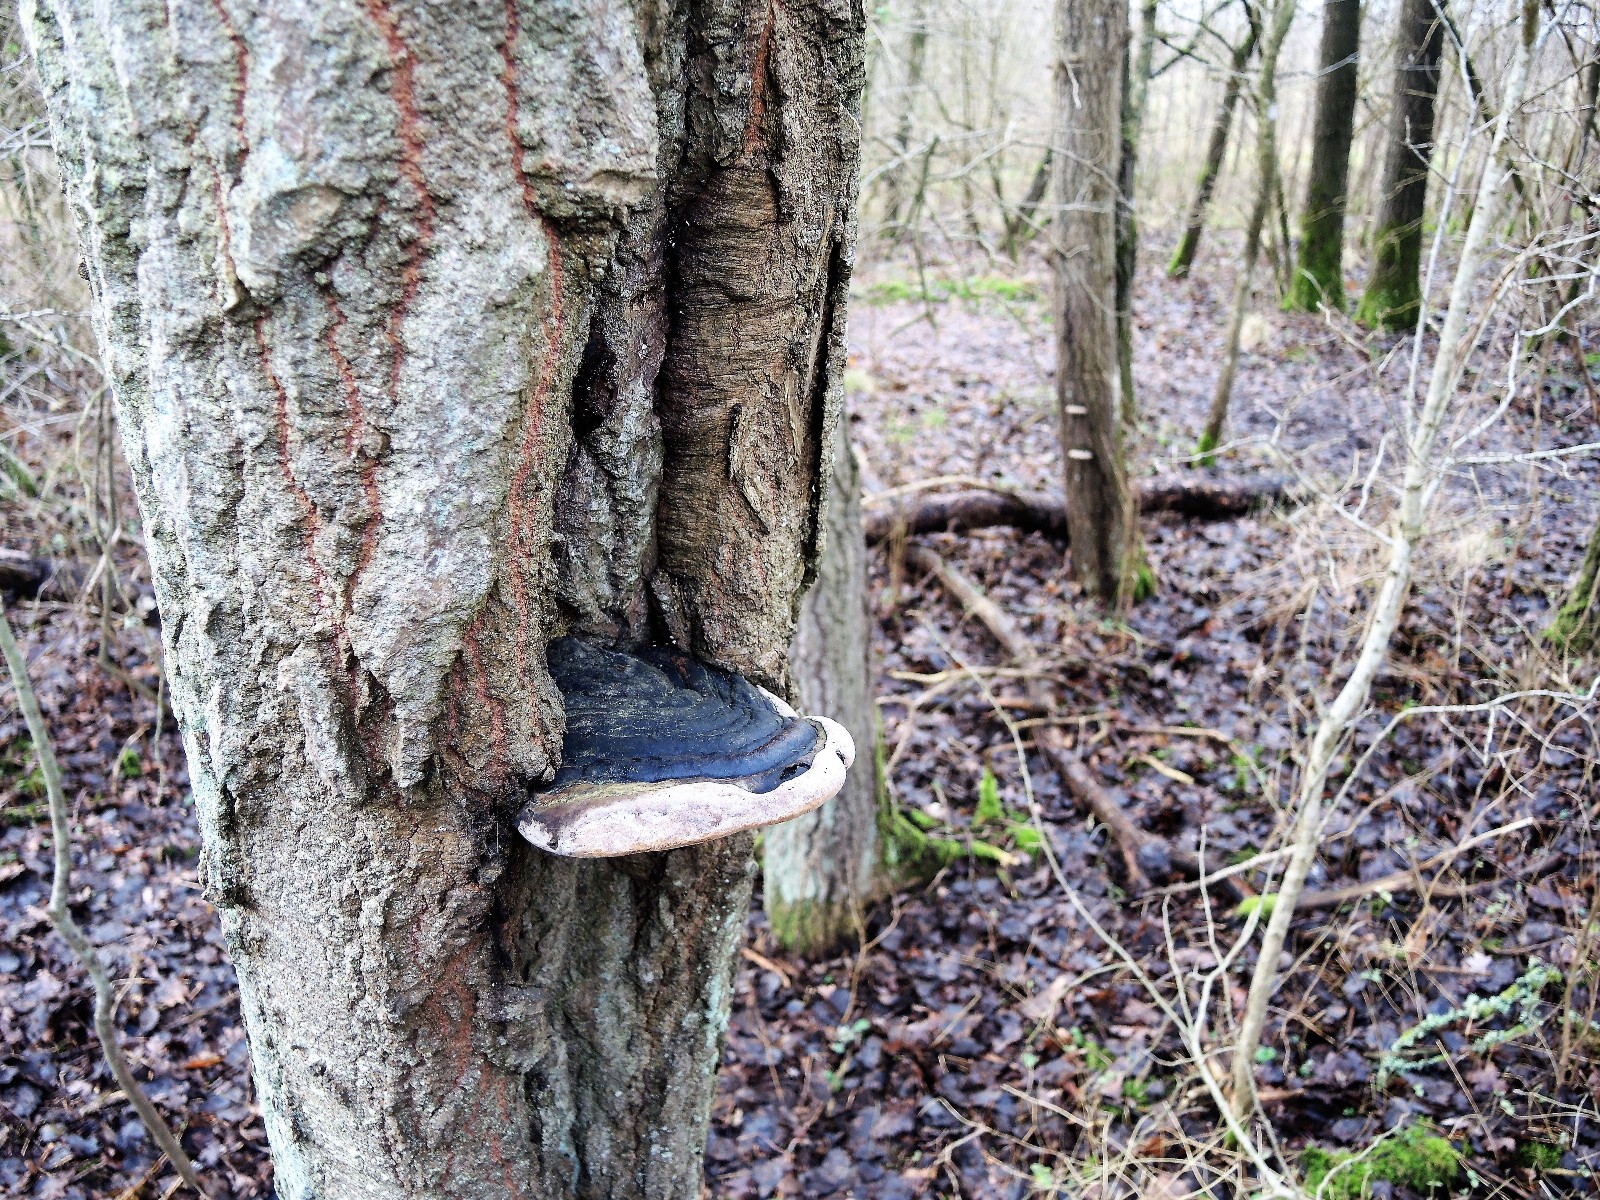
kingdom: Fungi
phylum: Basidiomycota
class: Agaricomycetes
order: Hymenochaetales
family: Hymenochaetaceae
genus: Phellinus
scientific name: Phellinus populicola
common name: poppel-ildporesvamp
